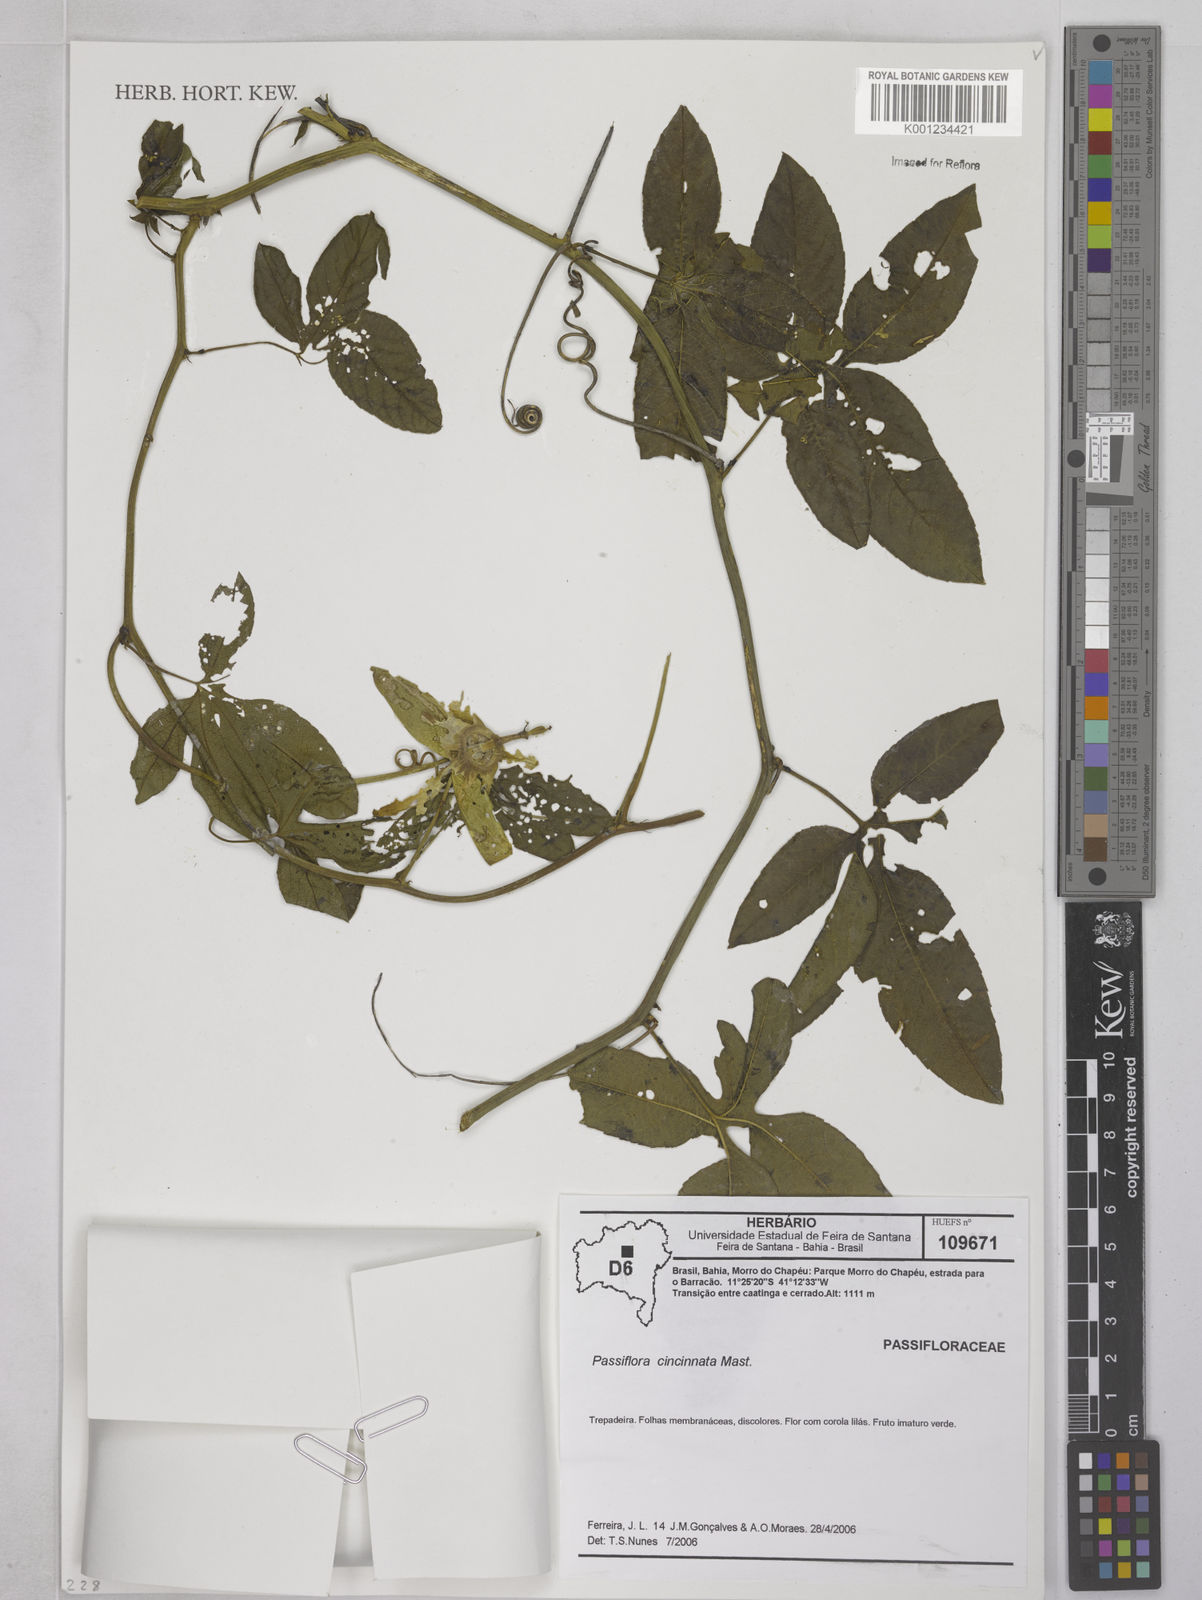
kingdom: Plantae
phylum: Tracheophyta
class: Magnoliopsida
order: Malpighiales
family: Passifloraceae
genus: Passiflora
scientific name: Passiflora cincinnata
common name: Crato passionvine
